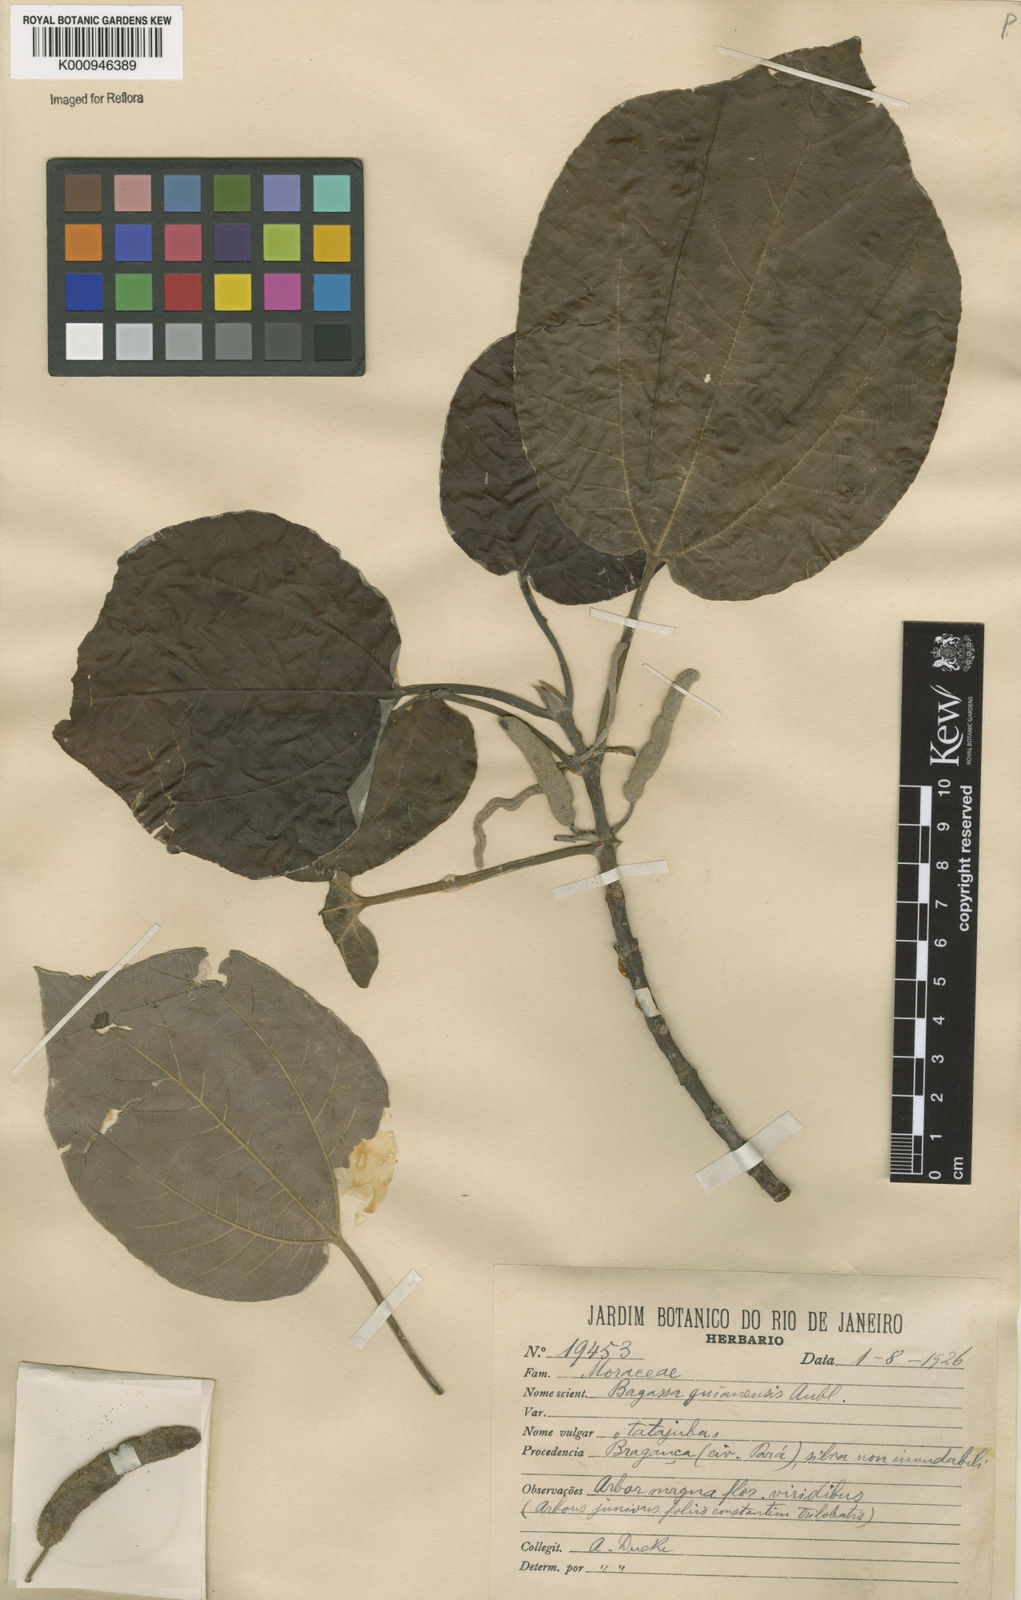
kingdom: Plantae
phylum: Tracheophyta
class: Magnoliopsida
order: Rosales
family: Moraceae
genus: Bagassa
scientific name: Bagassa guianensis
